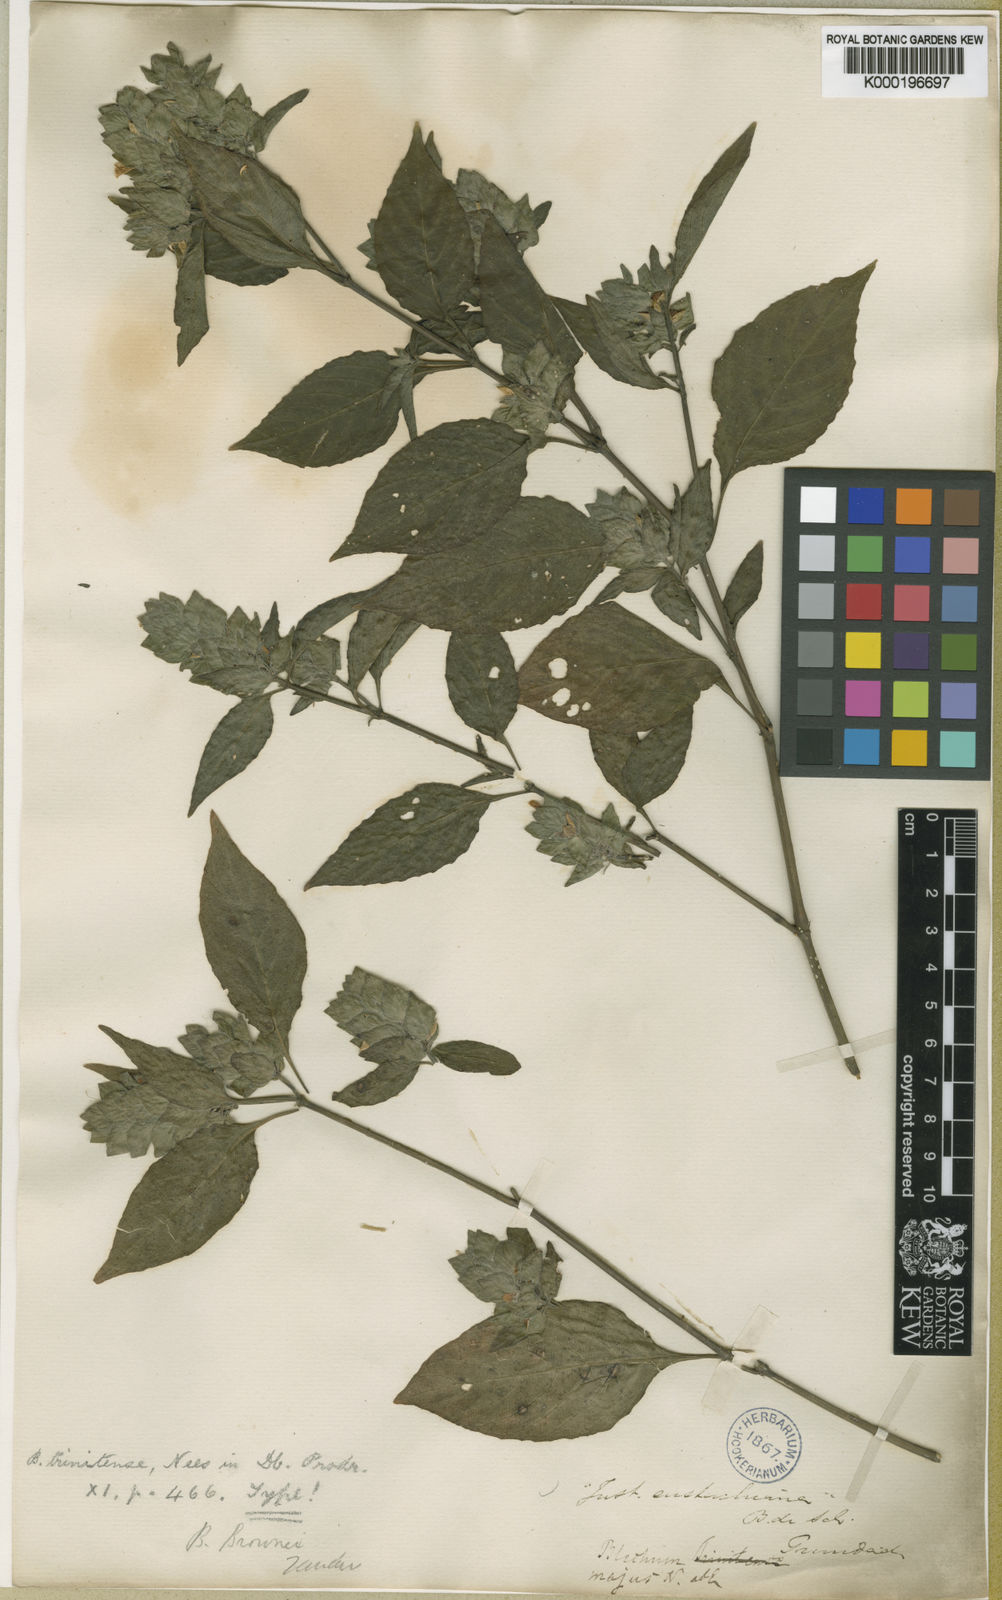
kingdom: Plantae
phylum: Tracheophyta
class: Magnoliopsida
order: Lamiales
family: Acanthaceae
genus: Ruellia
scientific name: Ruellia blechum
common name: Browne's blechum
